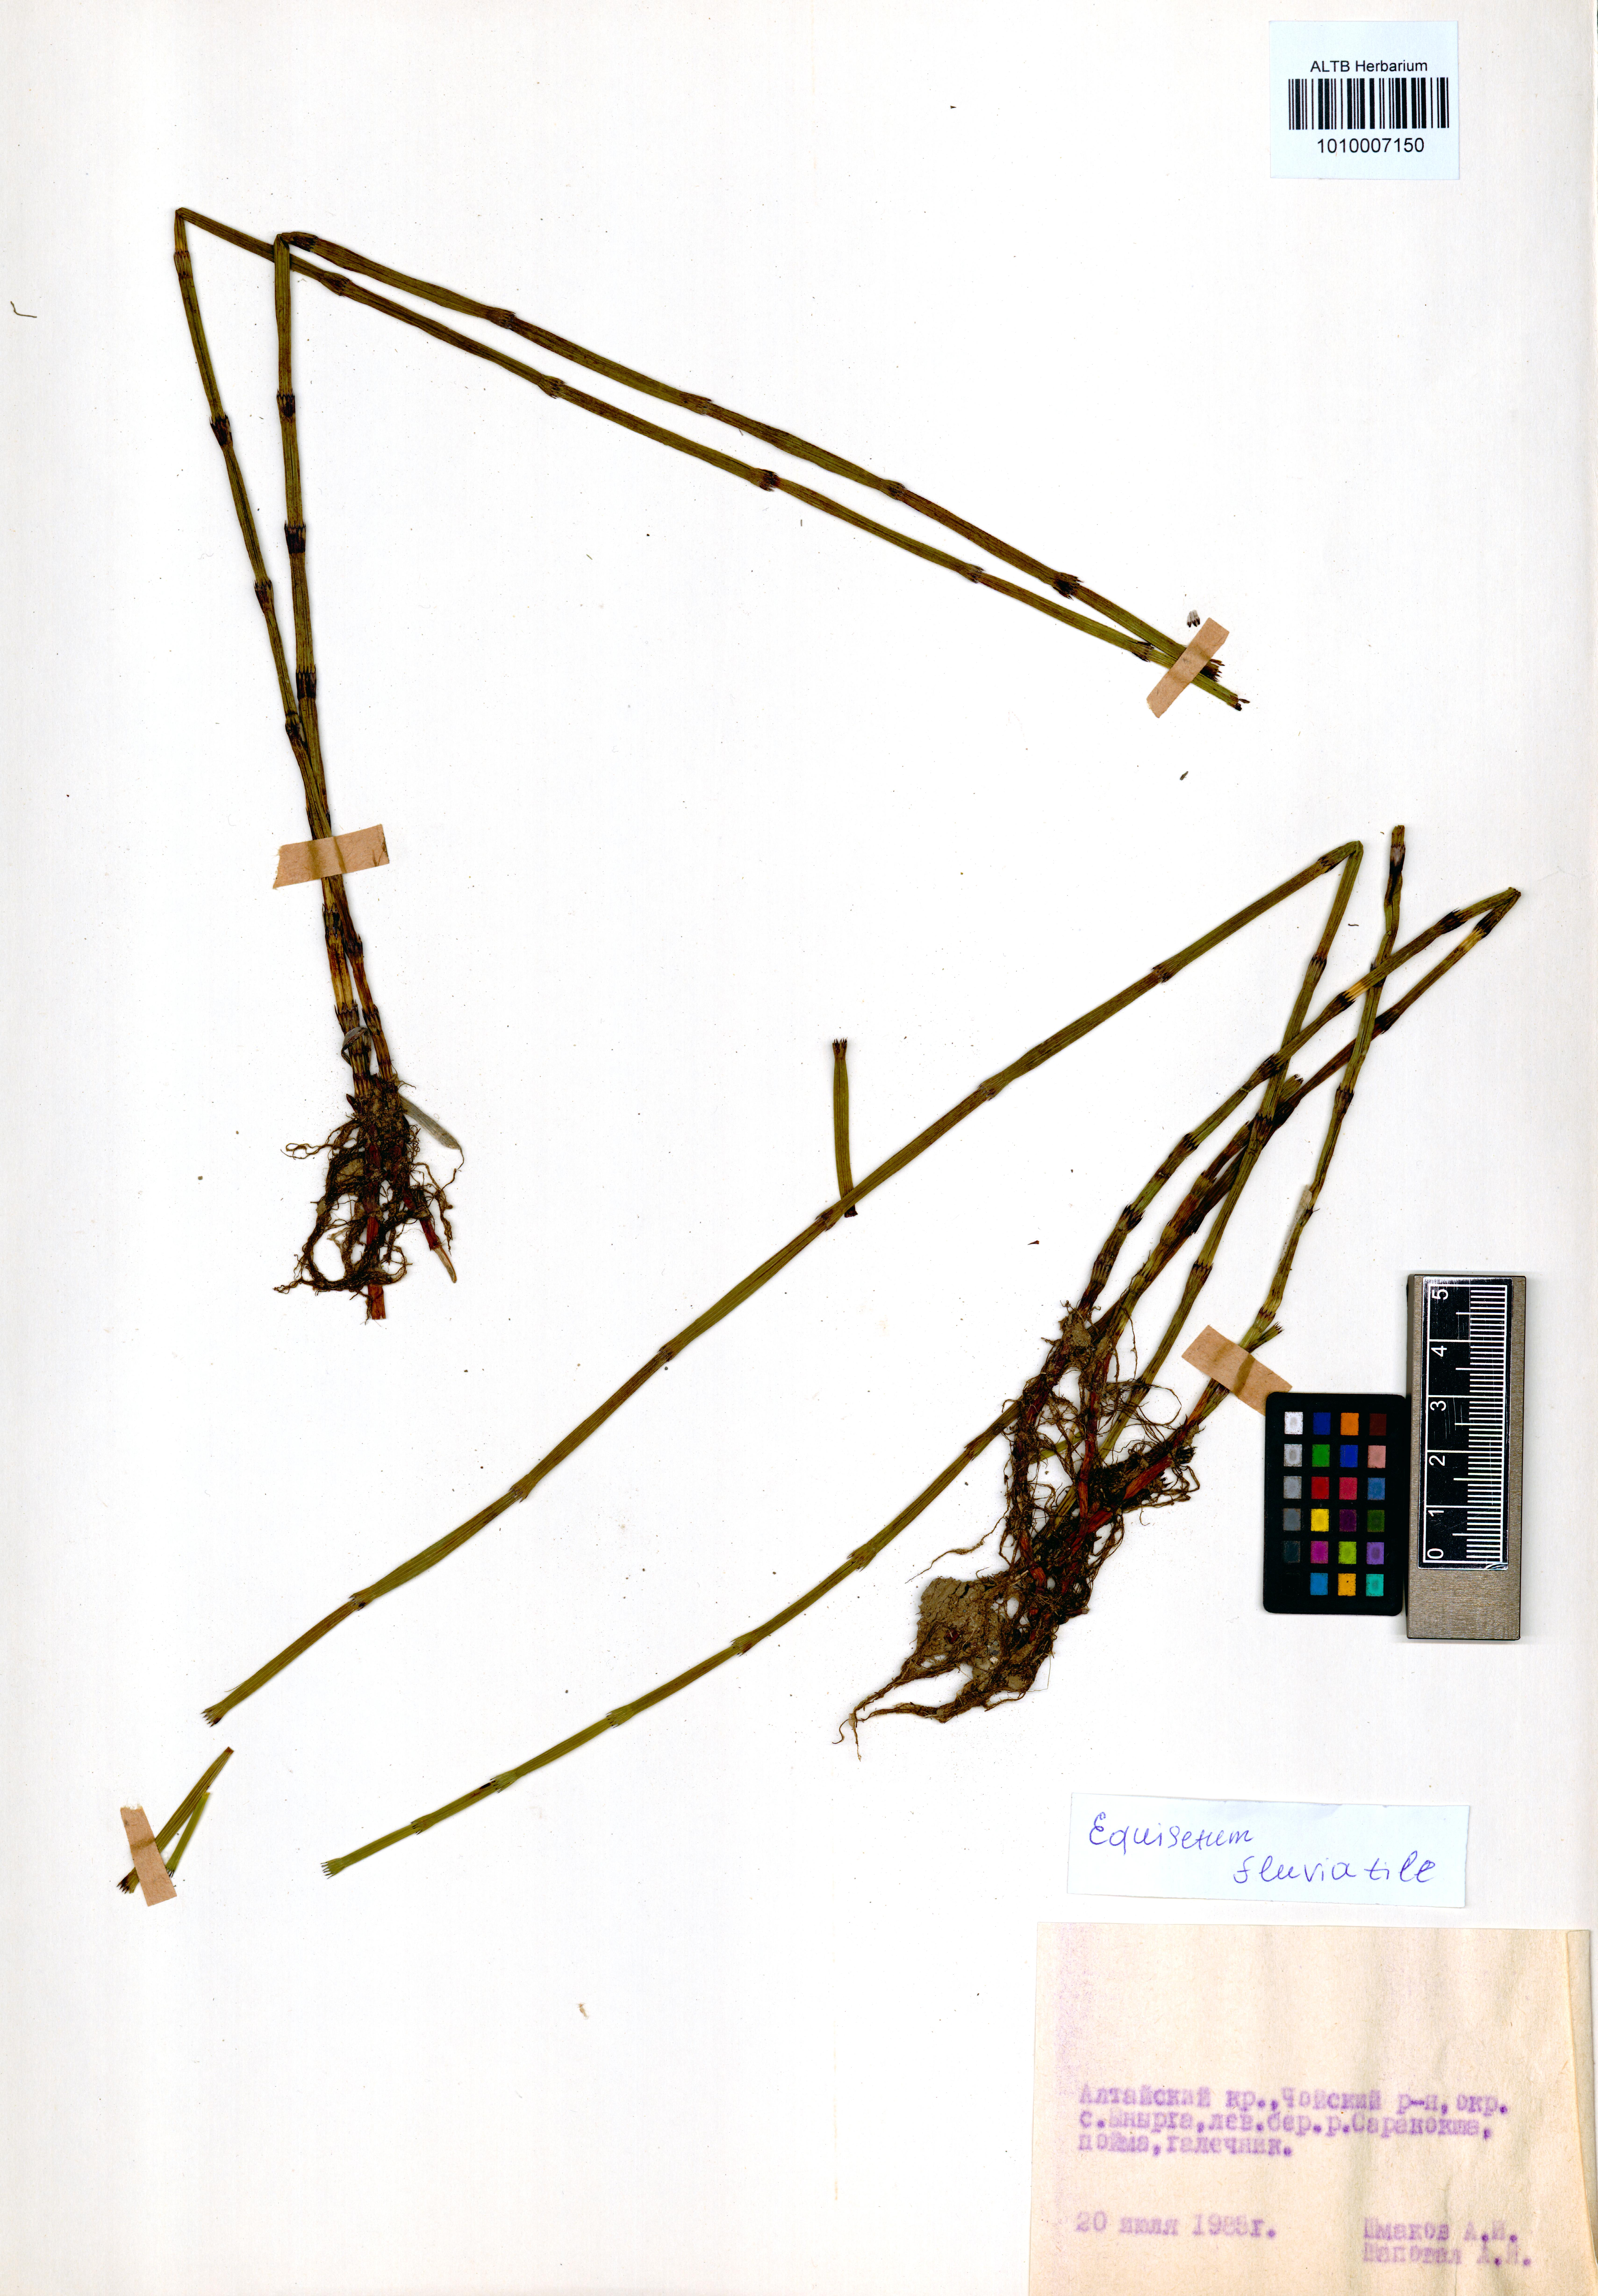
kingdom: Plantae
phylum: Tracheophyta
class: Polypodiopsida
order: Equisetales
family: Equisetaceae
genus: Equisetum
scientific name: Equisetum fluviatile
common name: Water horsetail
